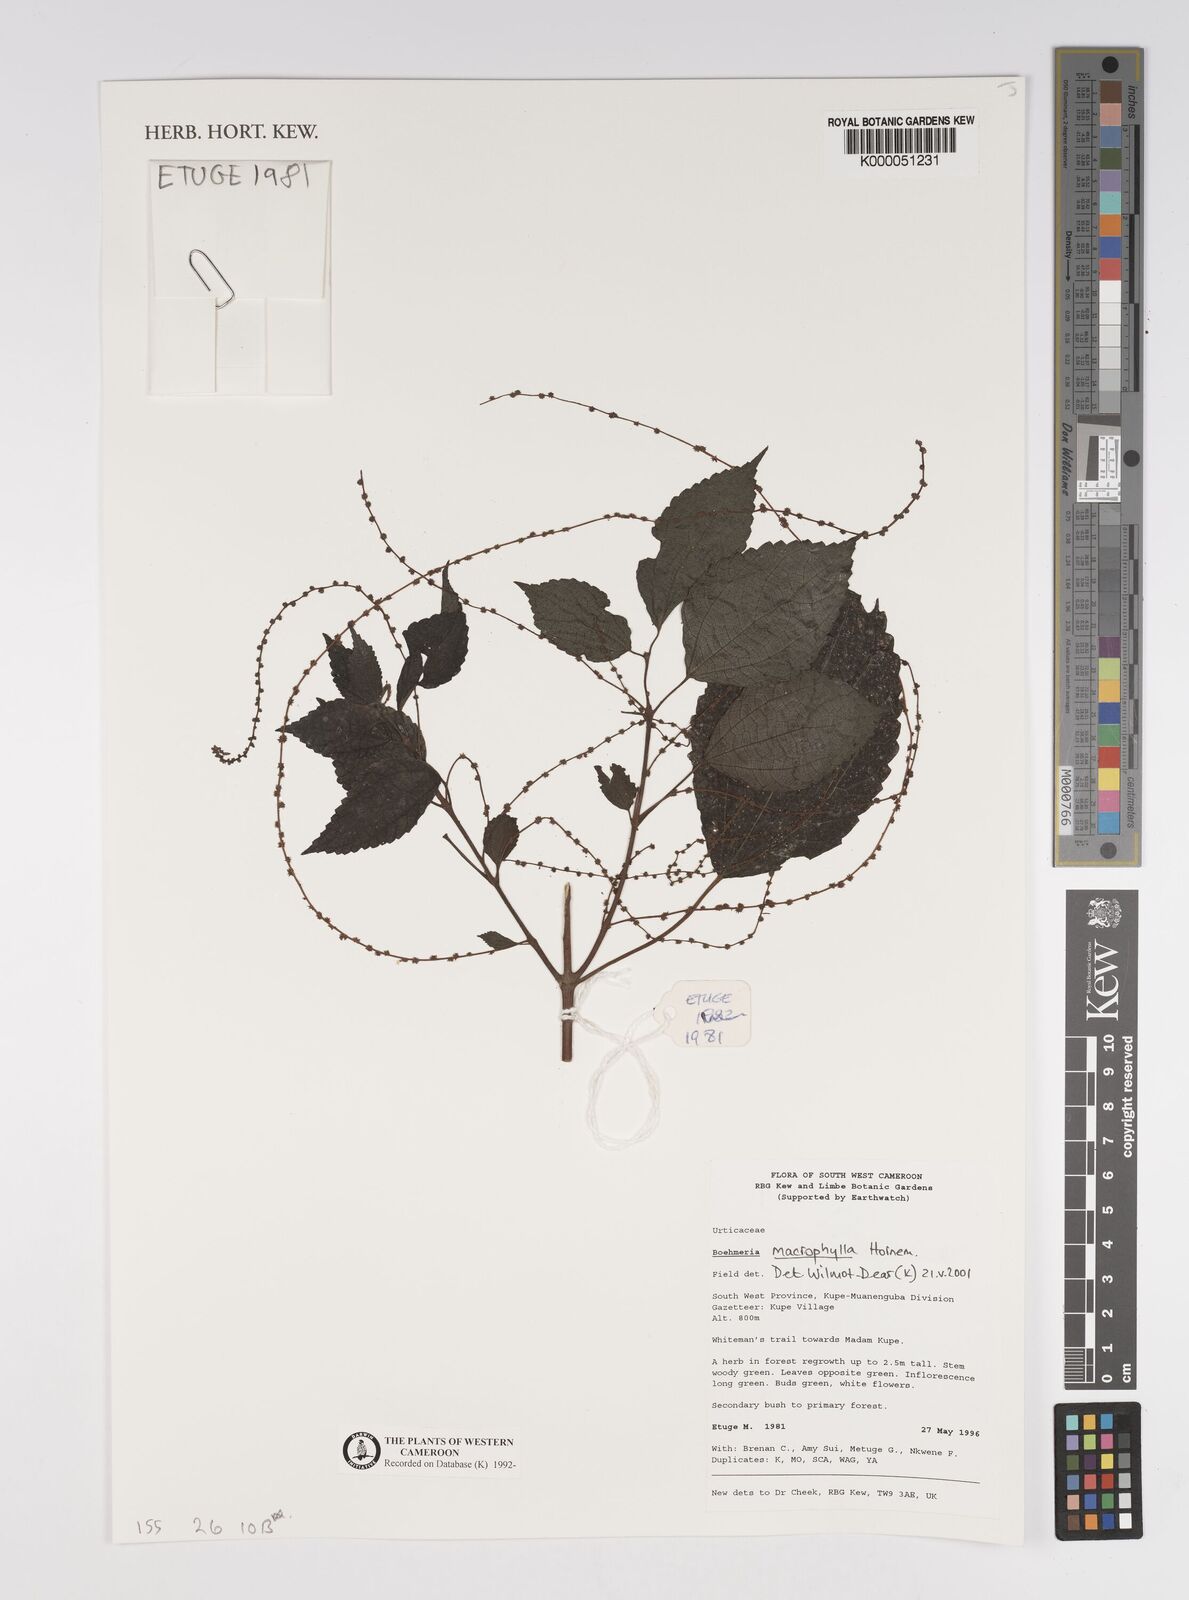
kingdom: Plantae
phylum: Tracheophyta
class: Magnoliopsida
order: Rosales
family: Urticaceae
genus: Boehmeria
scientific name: Boehmeria virgata
